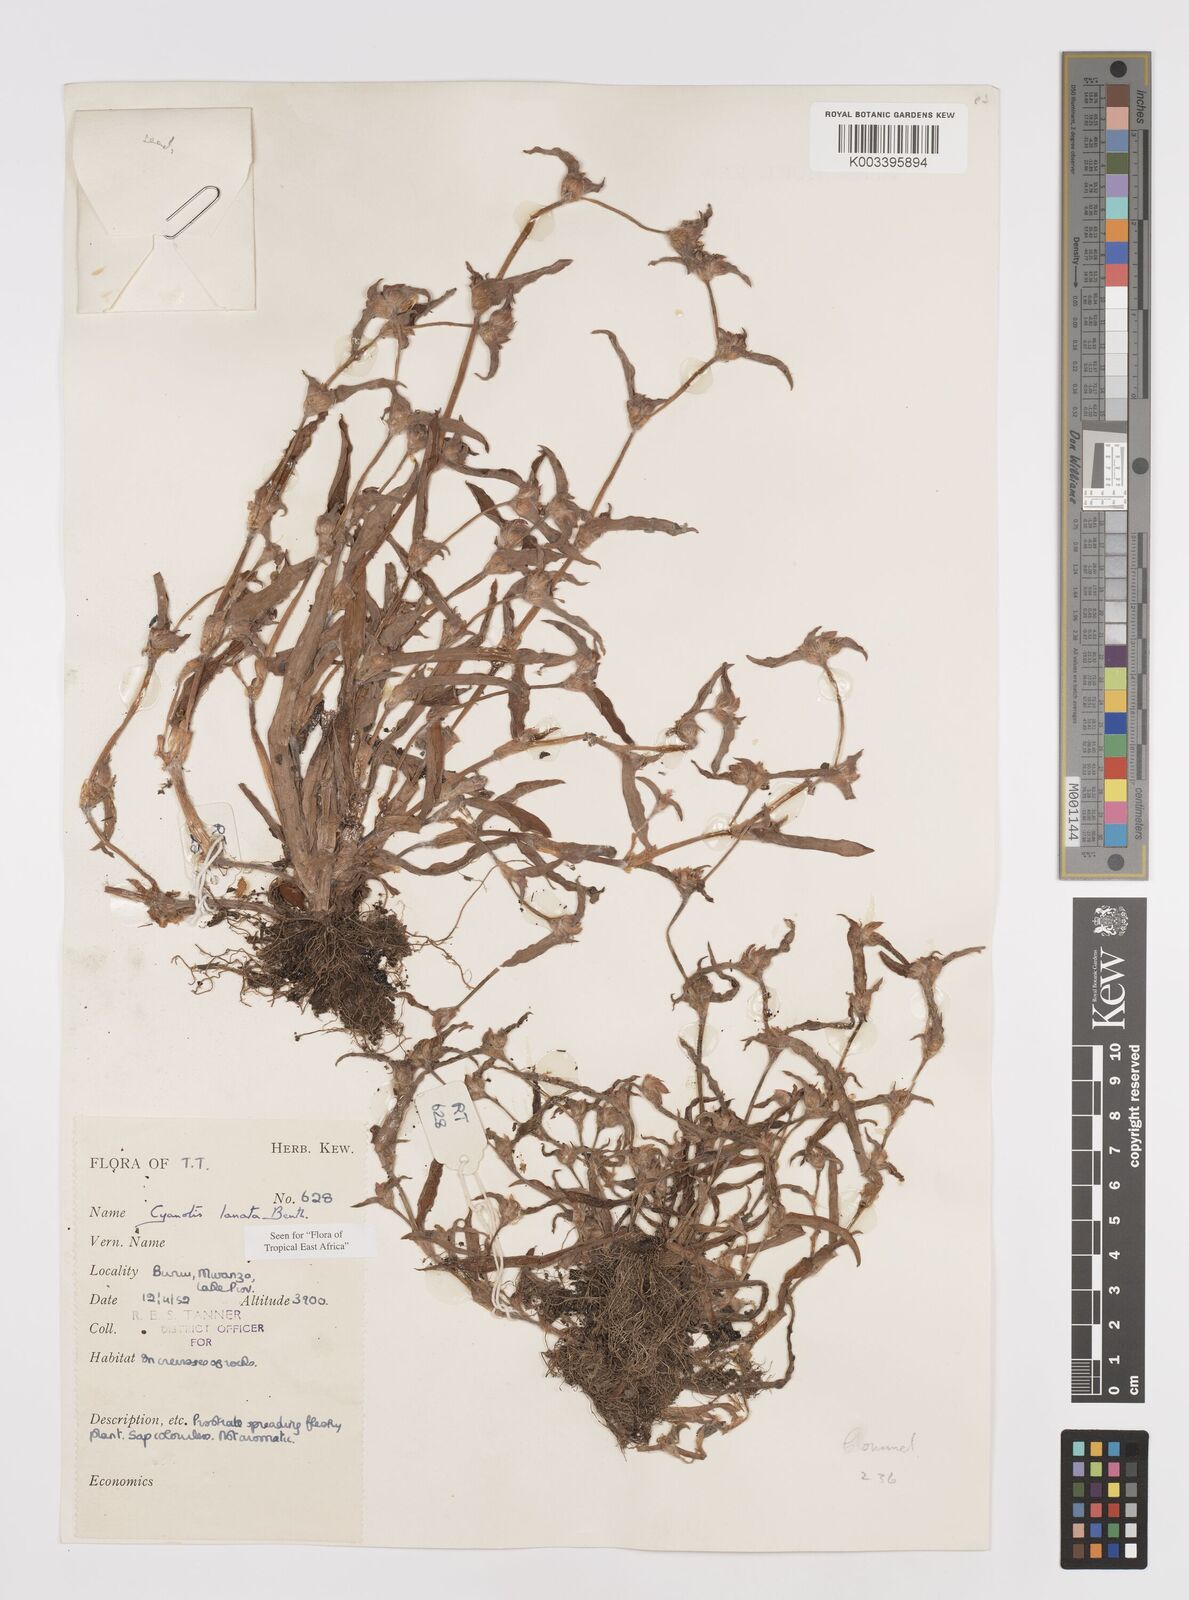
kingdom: Plantae
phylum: Tracheophyta
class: Liliopsida
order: Commelinales
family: Commelinaceae
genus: Cyanotis
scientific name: Cyanotis lanata
